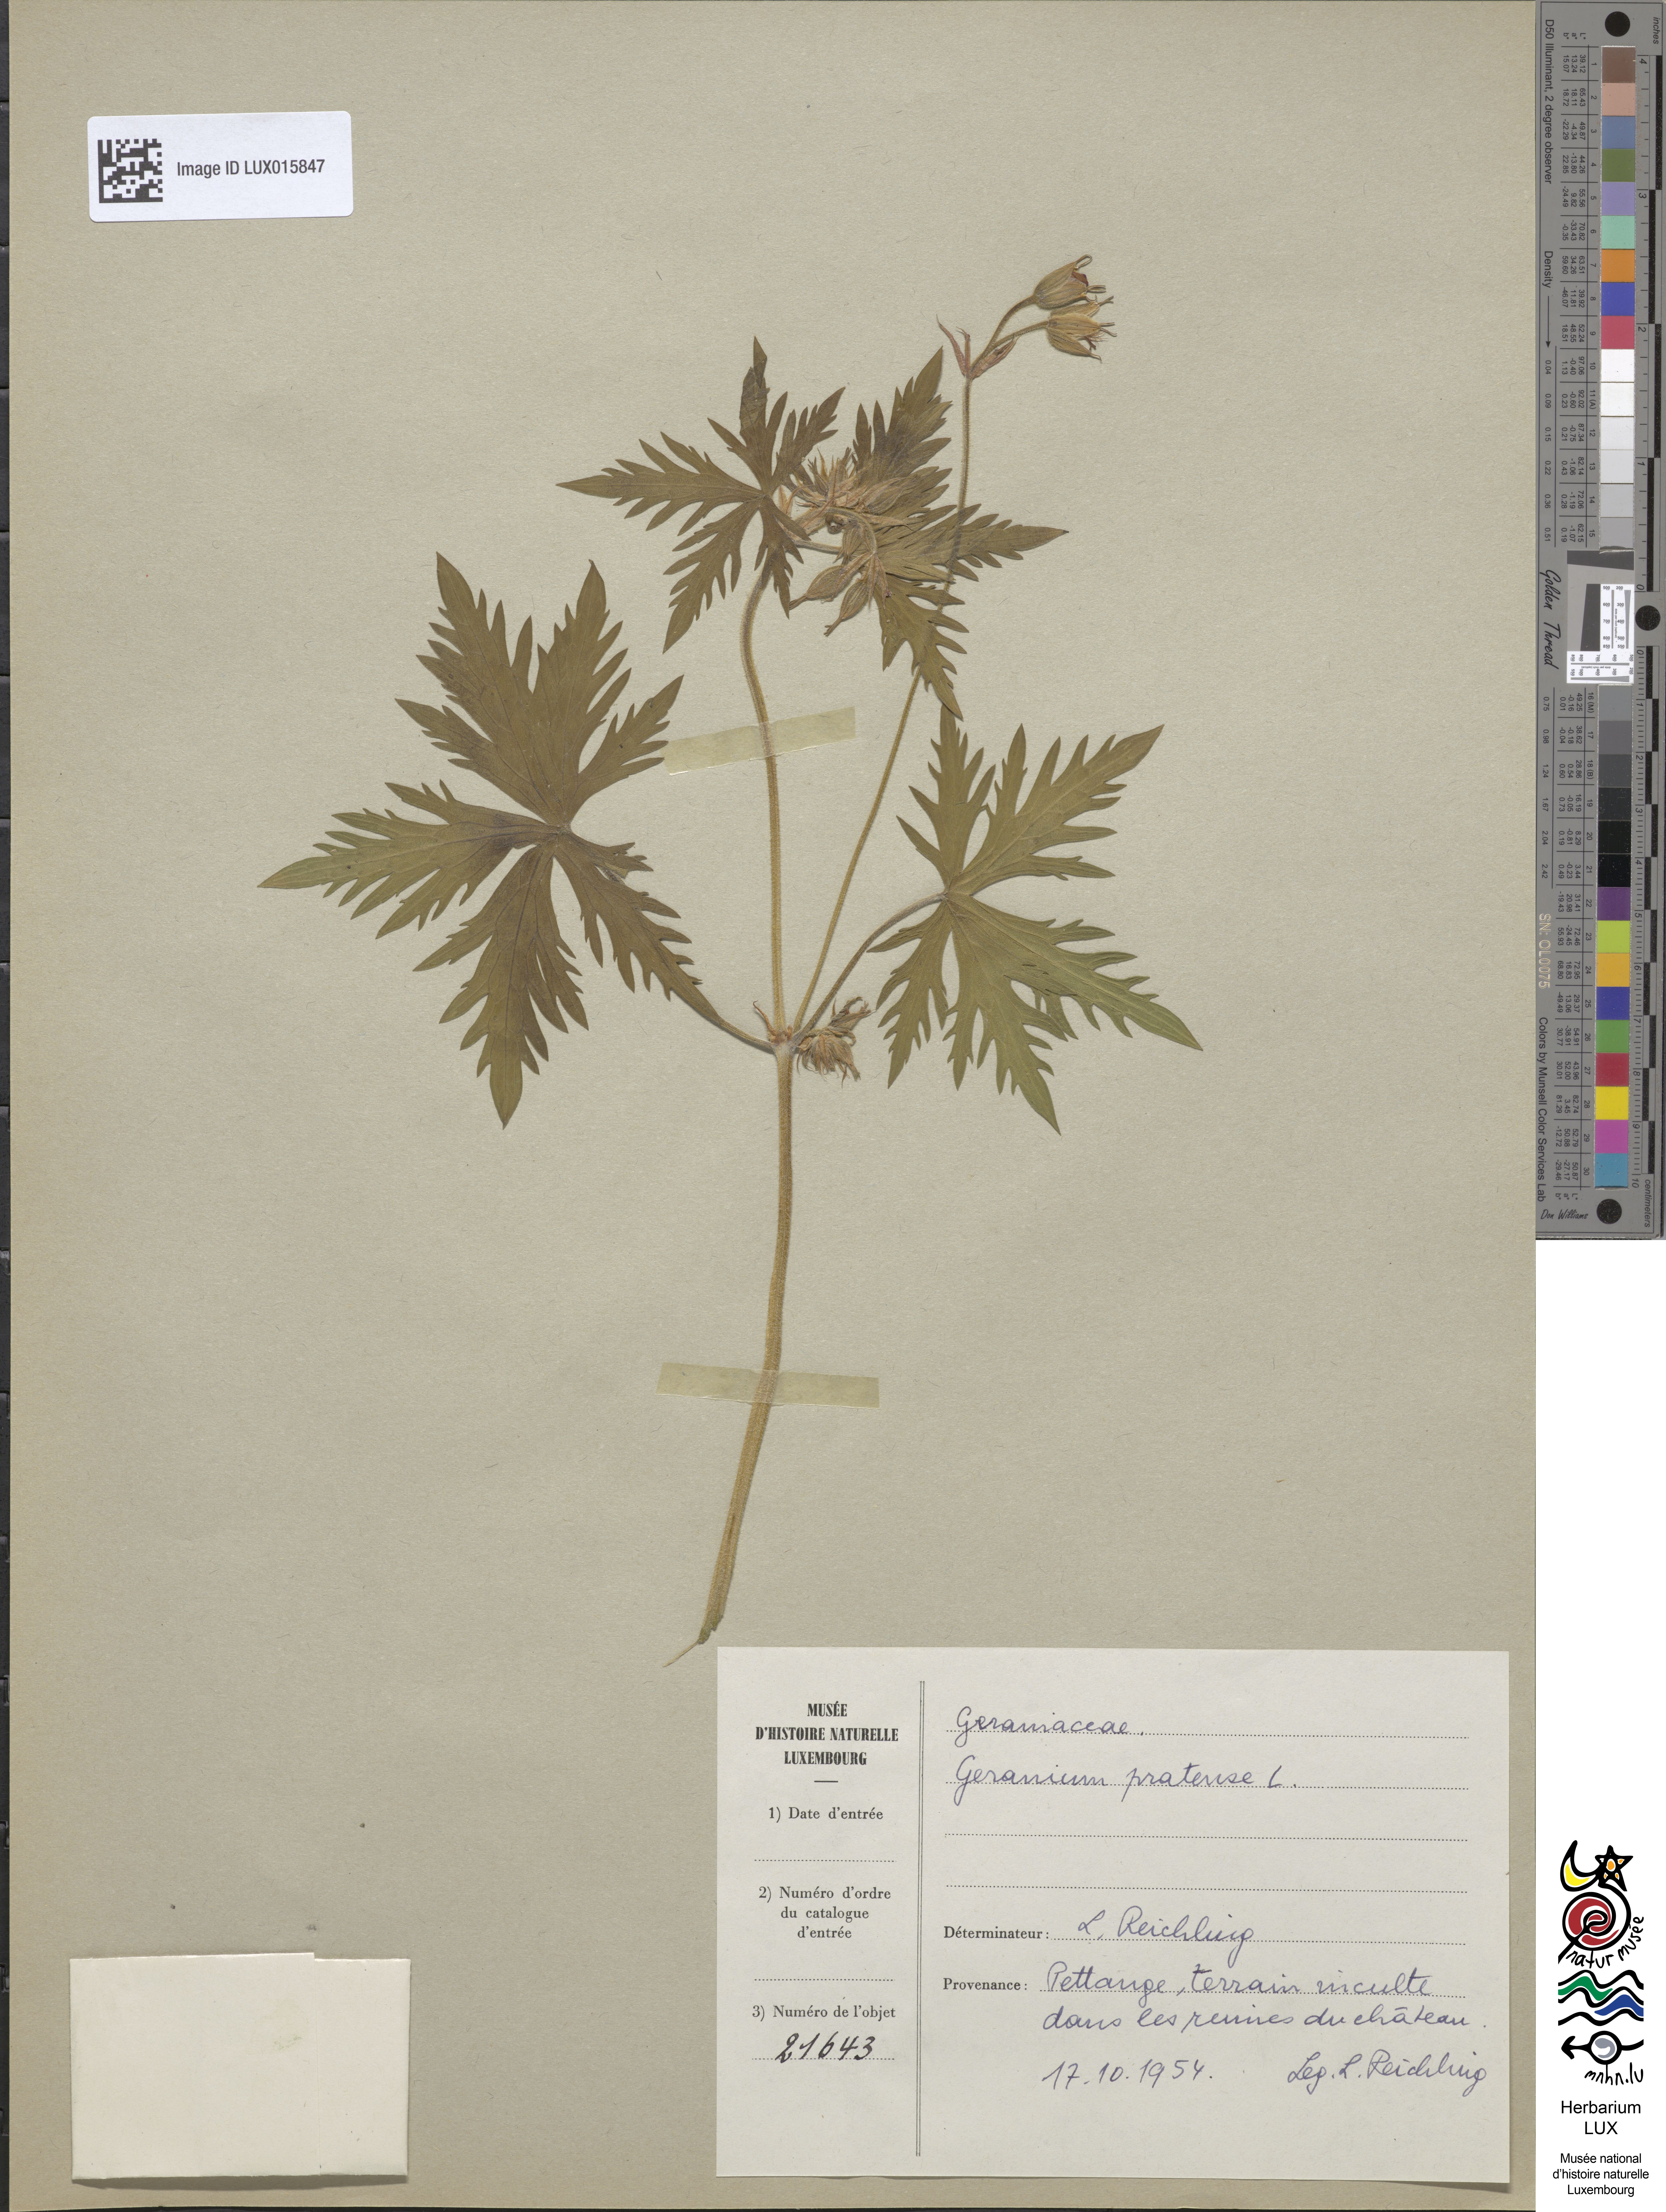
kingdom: Plantae
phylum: Tracheophyta
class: Magnoliopsida
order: Geraniales
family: Geraniaceae
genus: Geranium
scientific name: Geranium pratense
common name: Meadow crane's-bill
